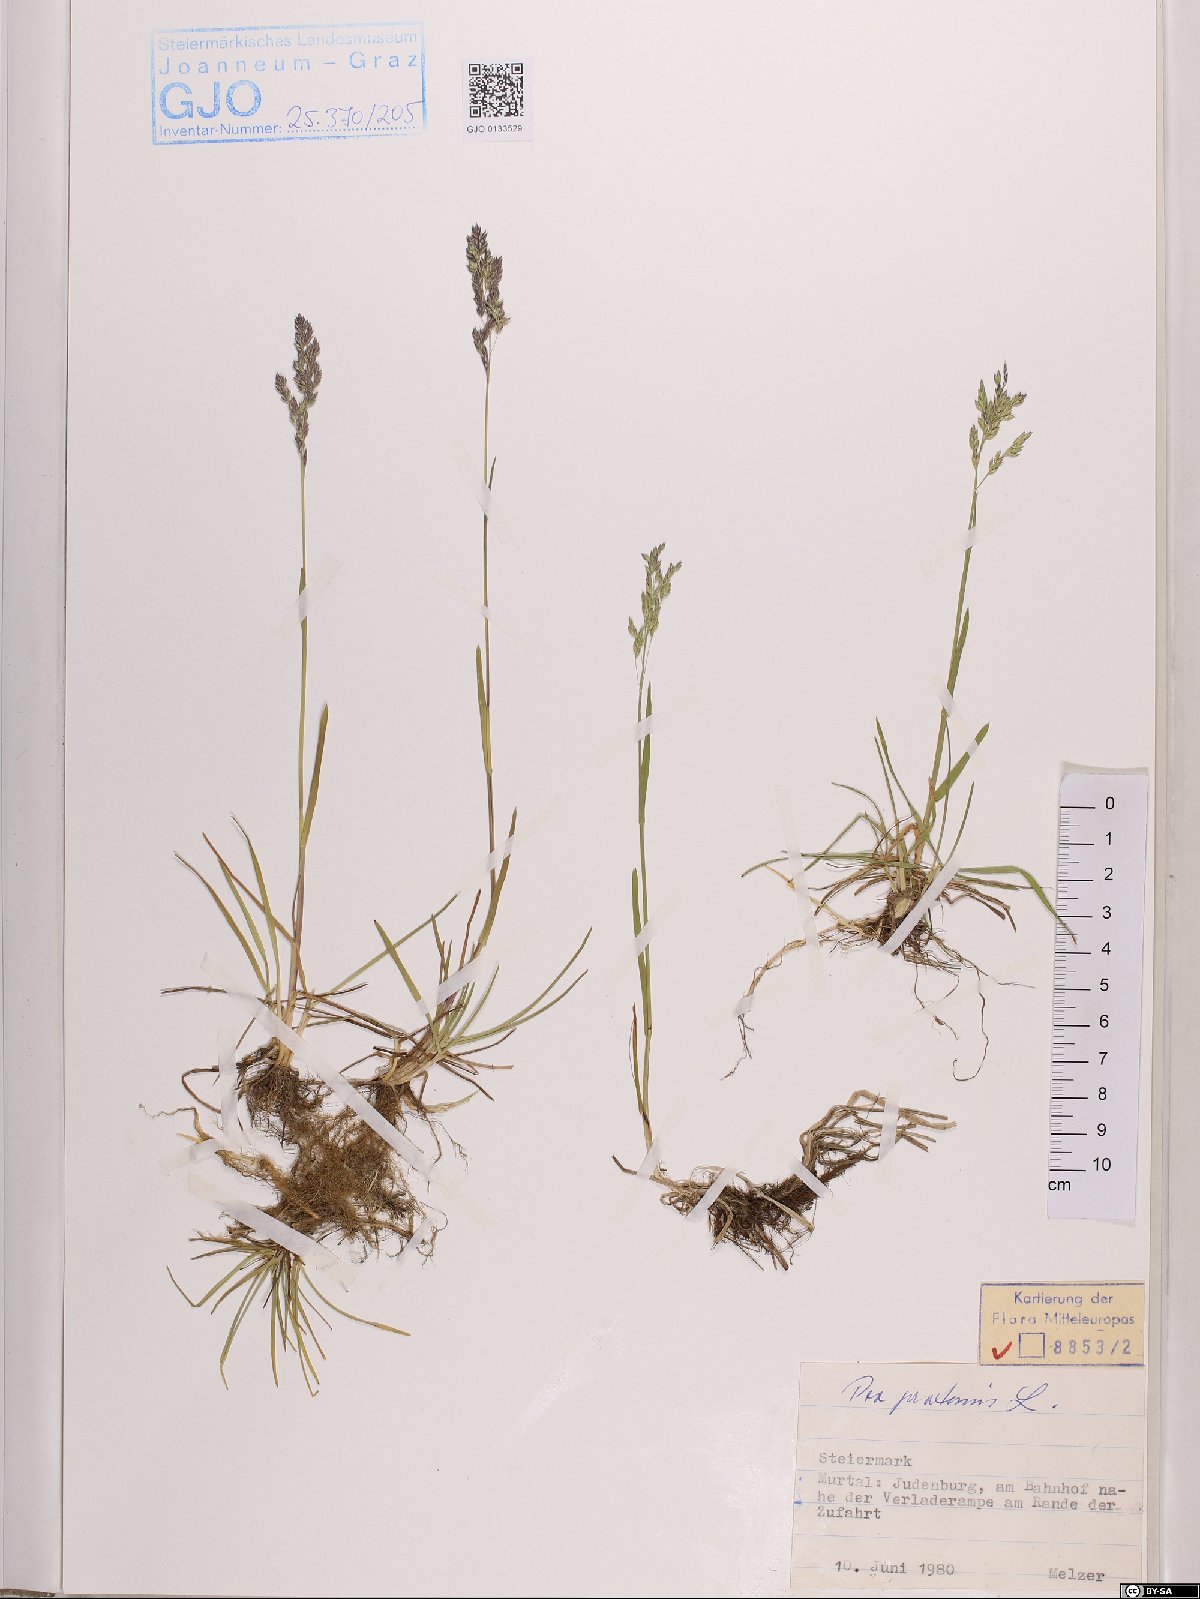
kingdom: Plantae
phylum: Tracheophyta
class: Liliopsida
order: Poales
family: Poaceae
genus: Poa
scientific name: Poa pratensis
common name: Kentucky bluegrass
